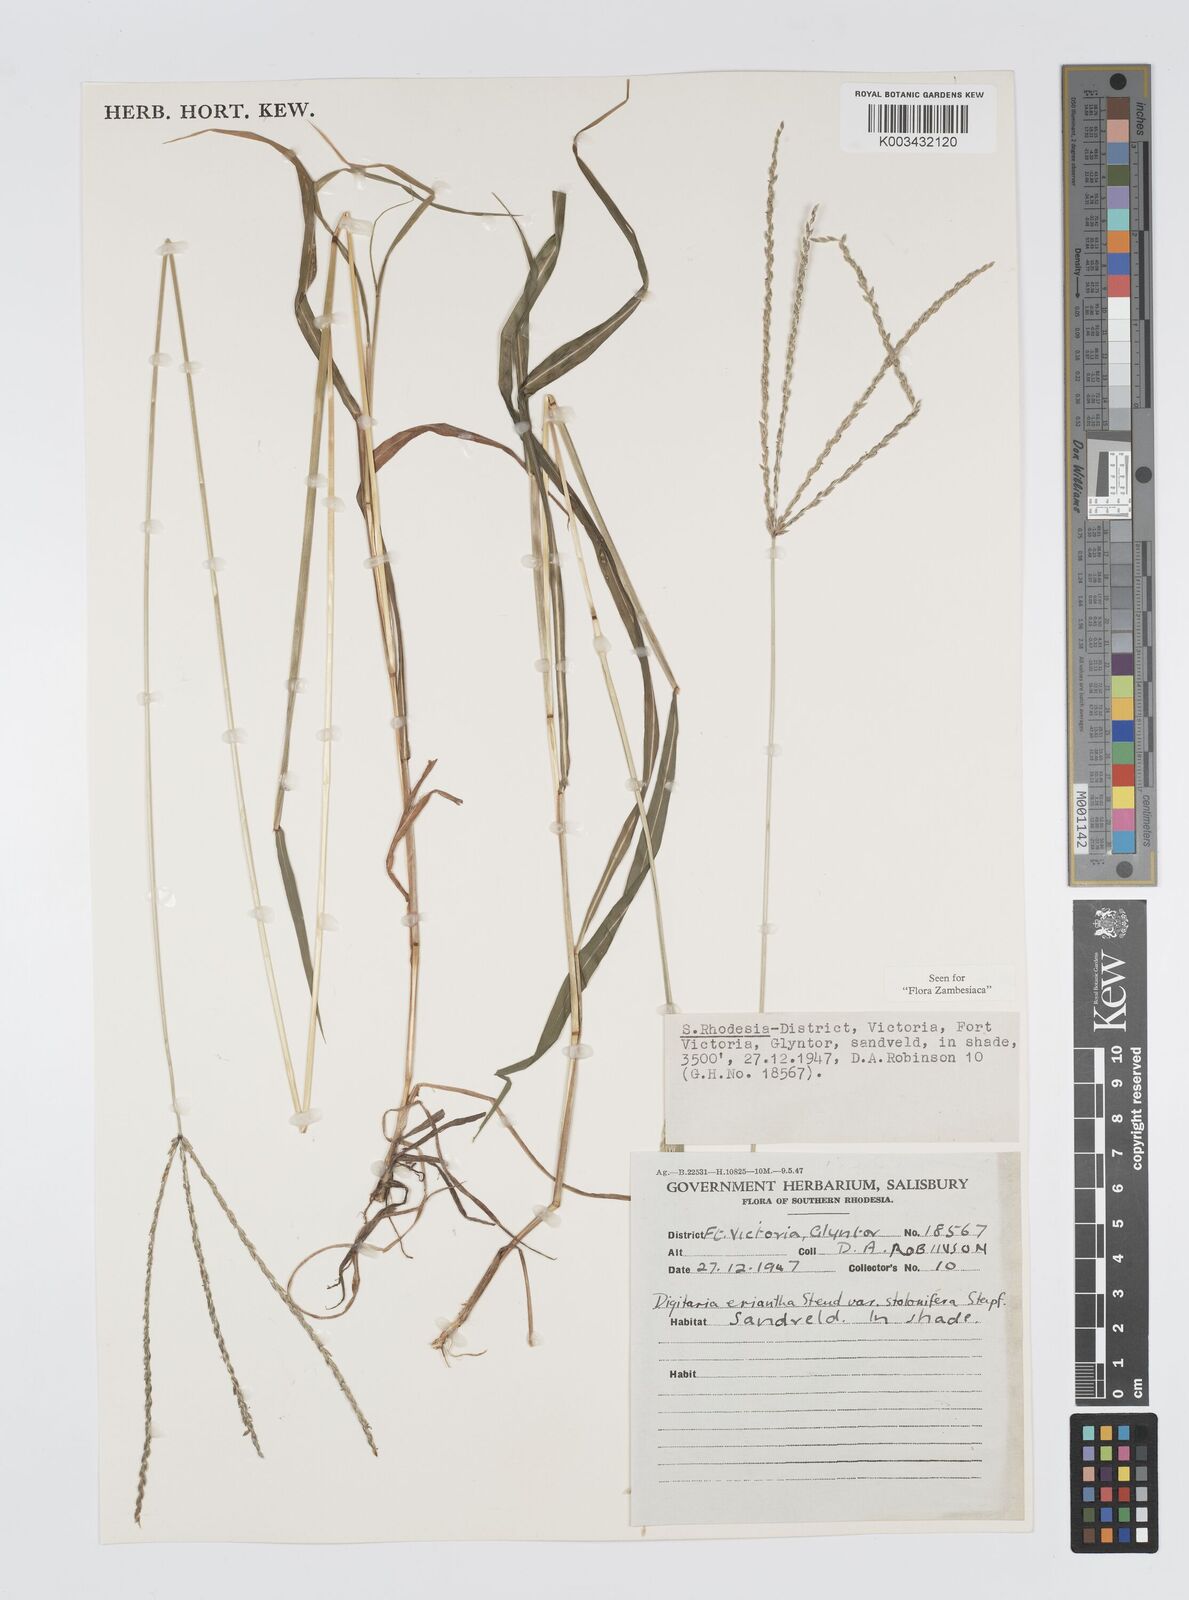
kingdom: Plantae
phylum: Tracheophyta
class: Liliopsida
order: Poales
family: Poaceae
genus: Digitaria
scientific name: Digitaria milanjiana
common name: Madagascar crabgrass
